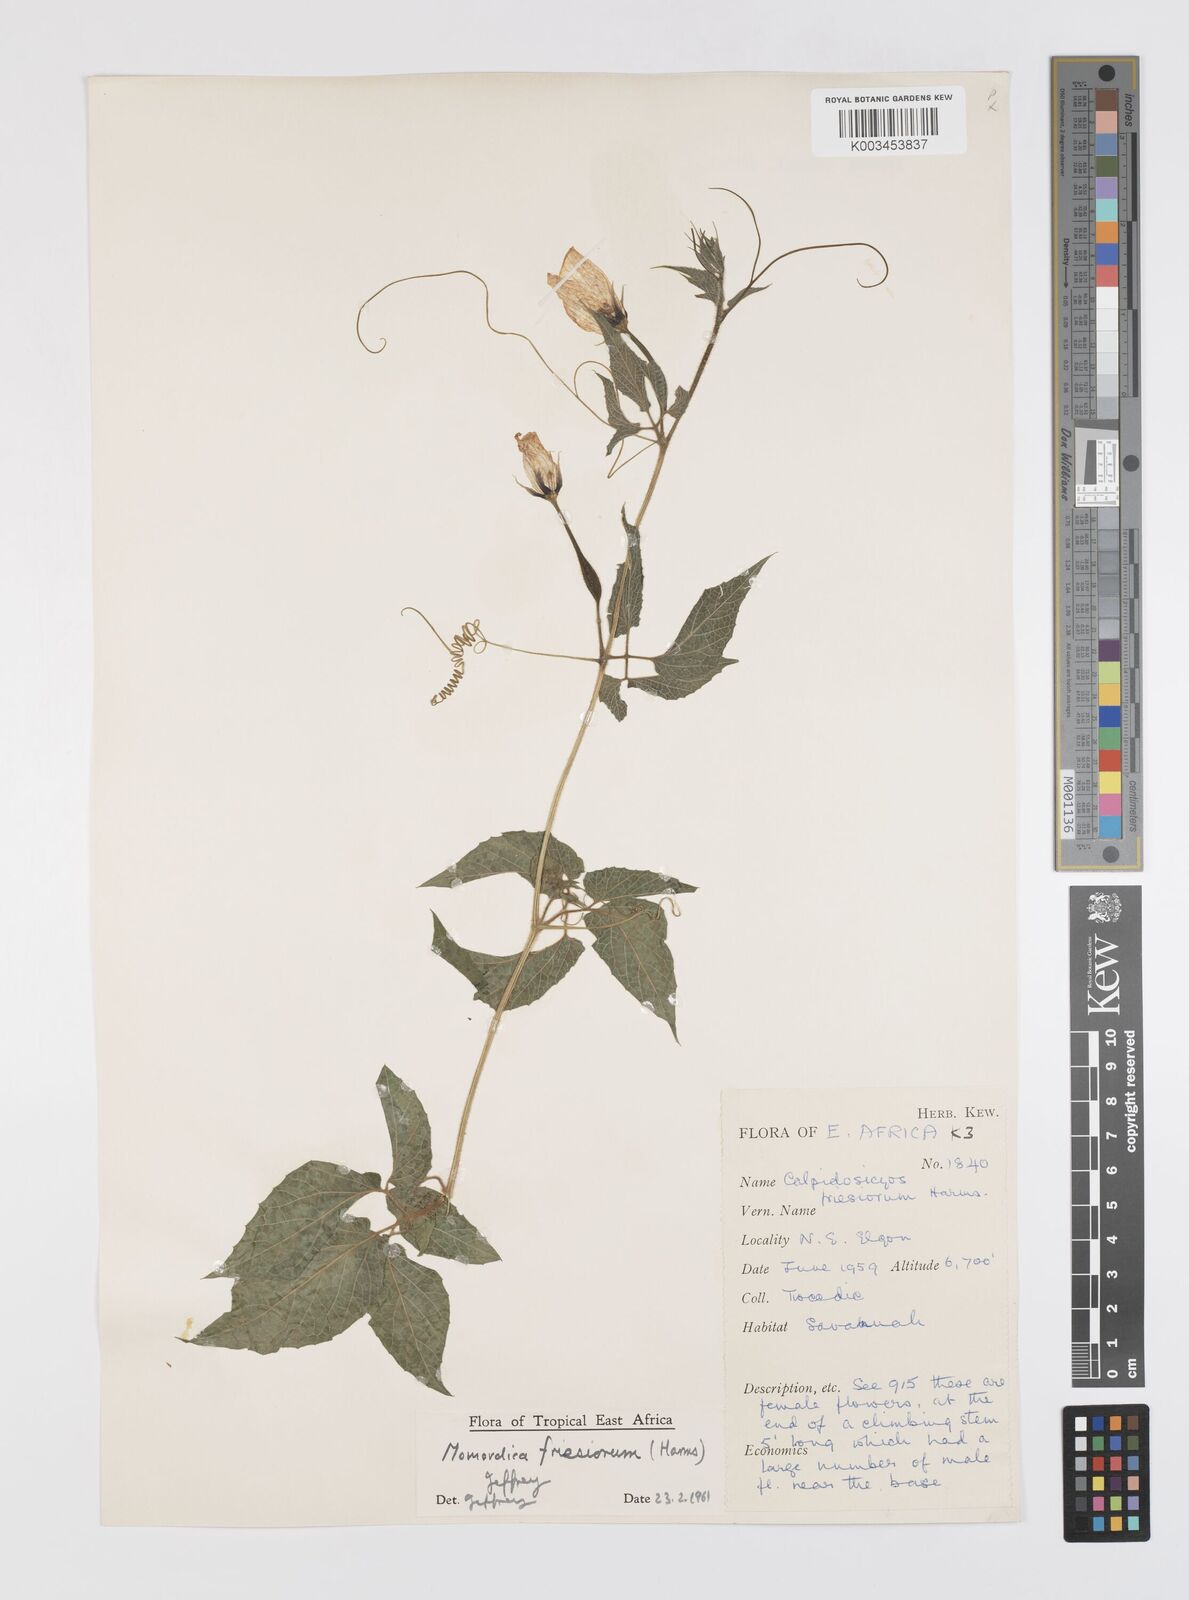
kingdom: Plantae
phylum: Tracheophyta
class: Magnoliopsida
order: Cucurbitales
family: Cucurbitaceae
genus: Momordica
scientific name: Momordica friesiorum
